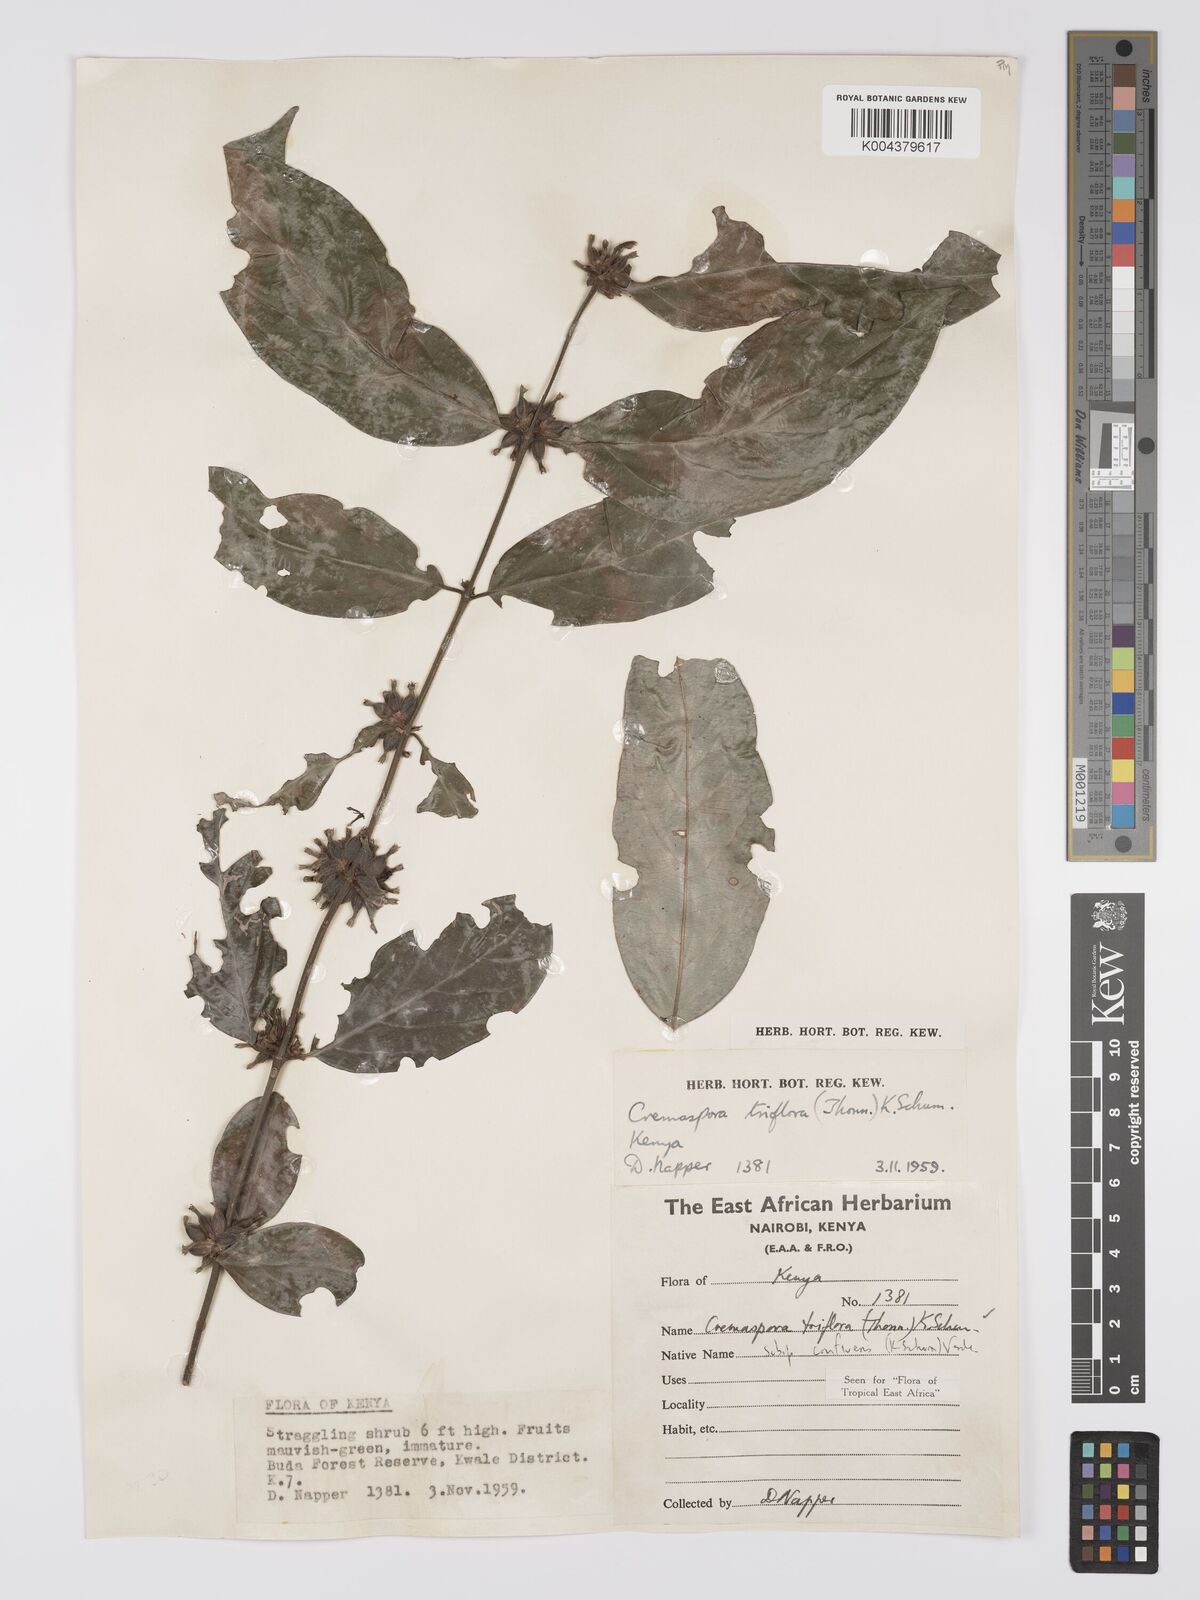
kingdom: Plantae
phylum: Tracheophyta
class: Magnoliopsida
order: Gentianales
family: Rubiaceae
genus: Cremaspora
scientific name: Cremaspora triflora
